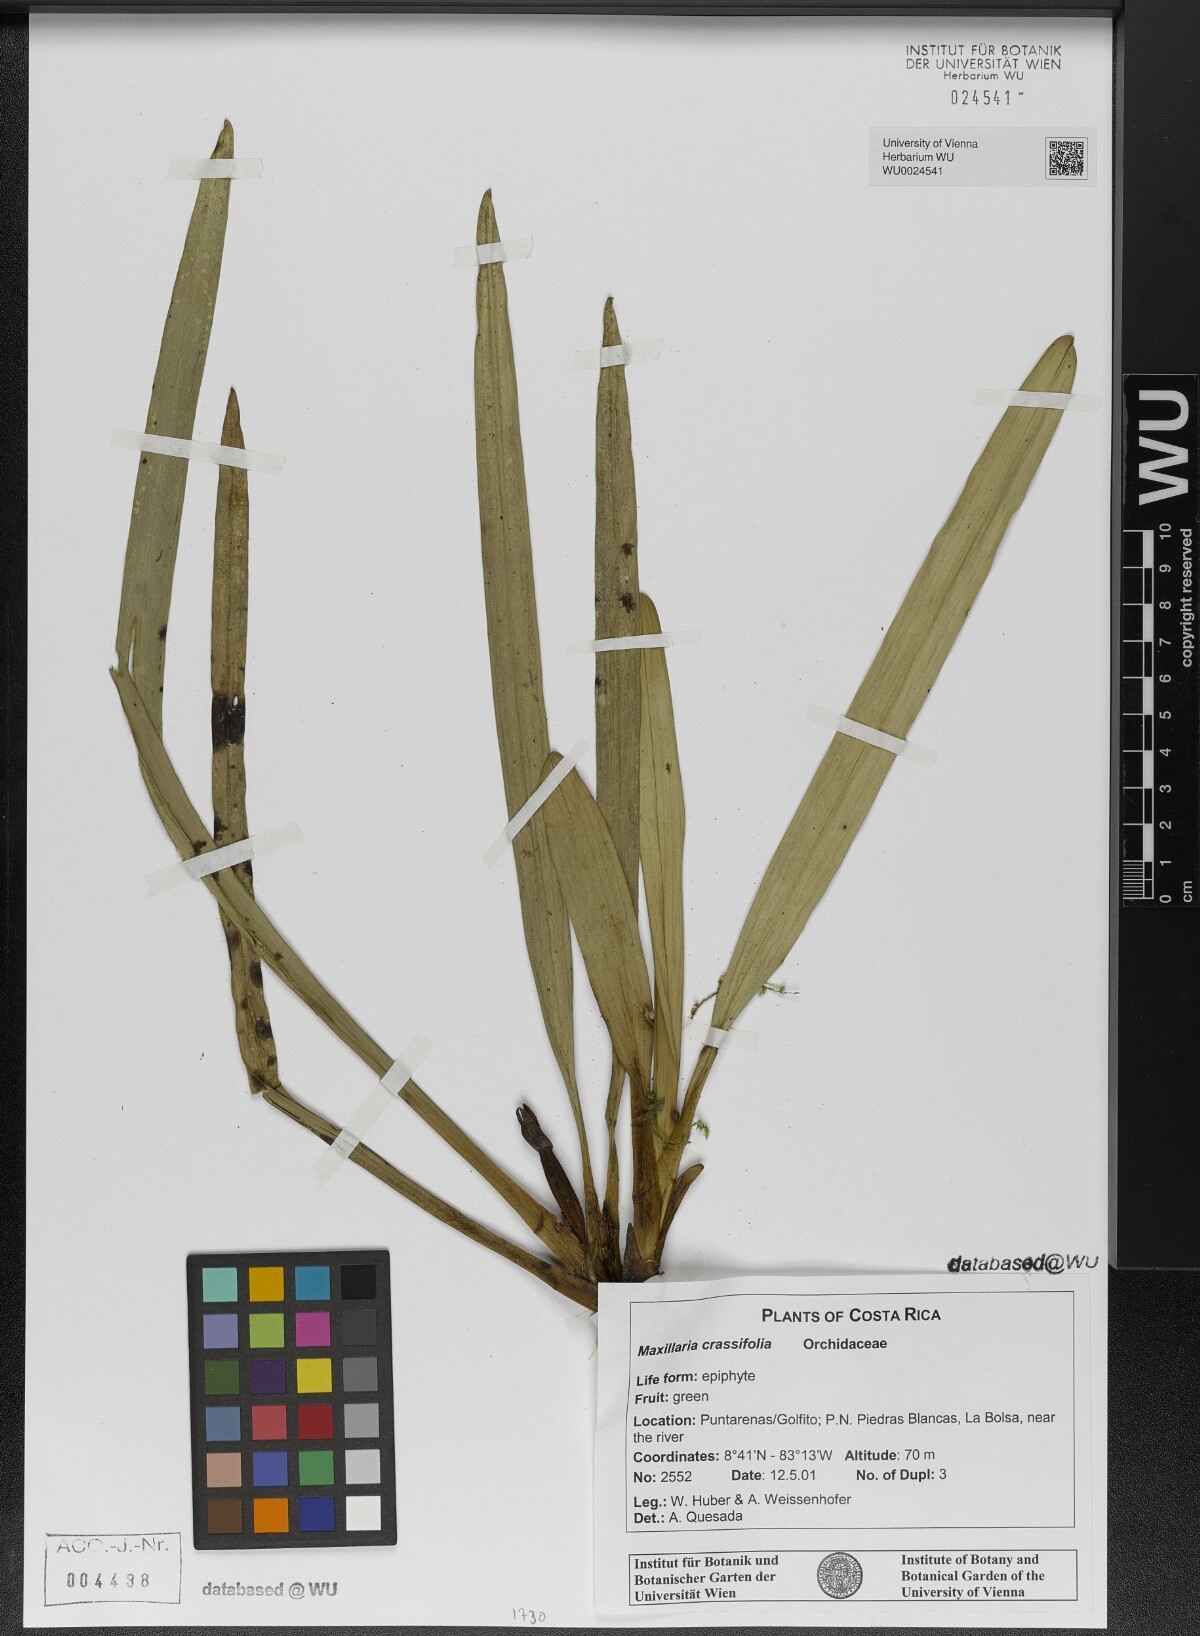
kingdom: Plantae
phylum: Tracheophyta
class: Liliopsida
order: Asparagales
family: Orchidaceae
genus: Maxillaria
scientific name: Maxillaria crassifolia
